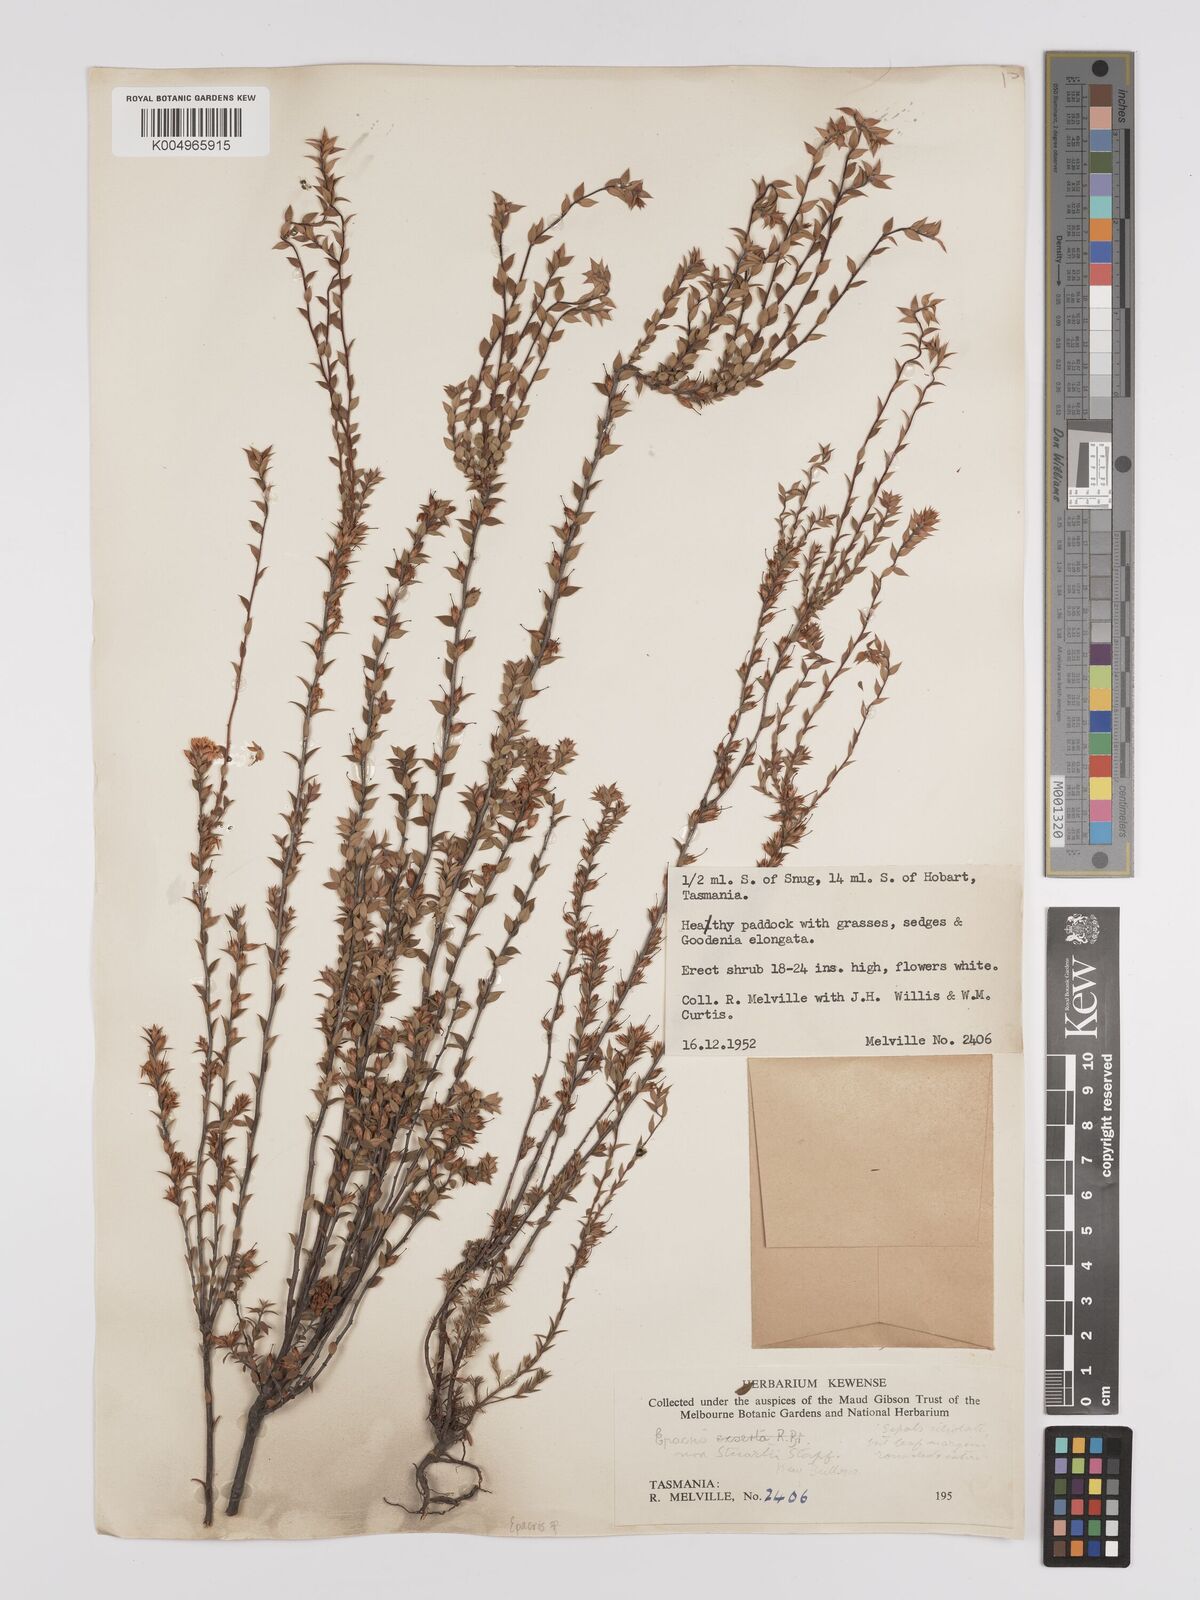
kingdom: Plantae
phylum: Tracheophyta
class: Magnoliopsida
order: Ericales
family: Ericaceae
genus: Epacris
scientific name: Epacris
